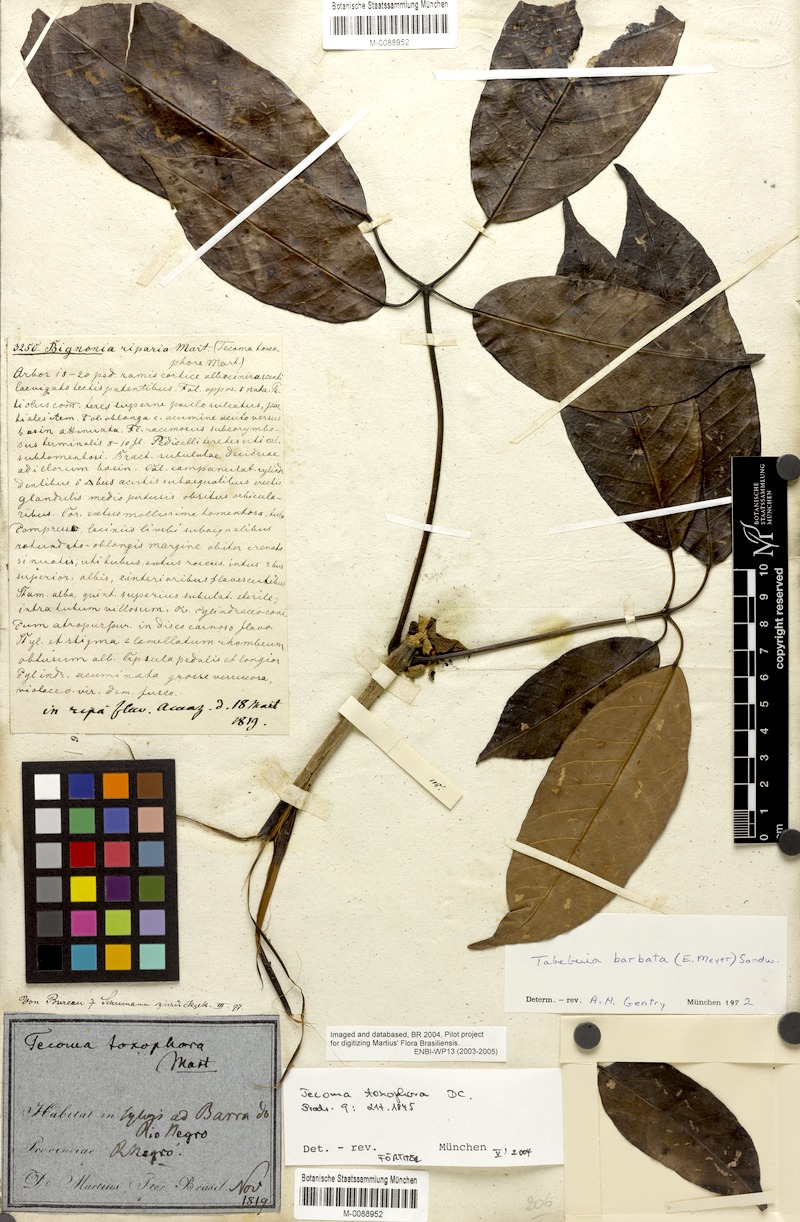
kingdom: Plantae
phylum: Tracheophyta
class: Magnoliopsida
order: Lamiales
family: Bignoniaceae
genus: Handroanthus
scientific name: Handroanthus barbatus
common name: Trumpet trees
